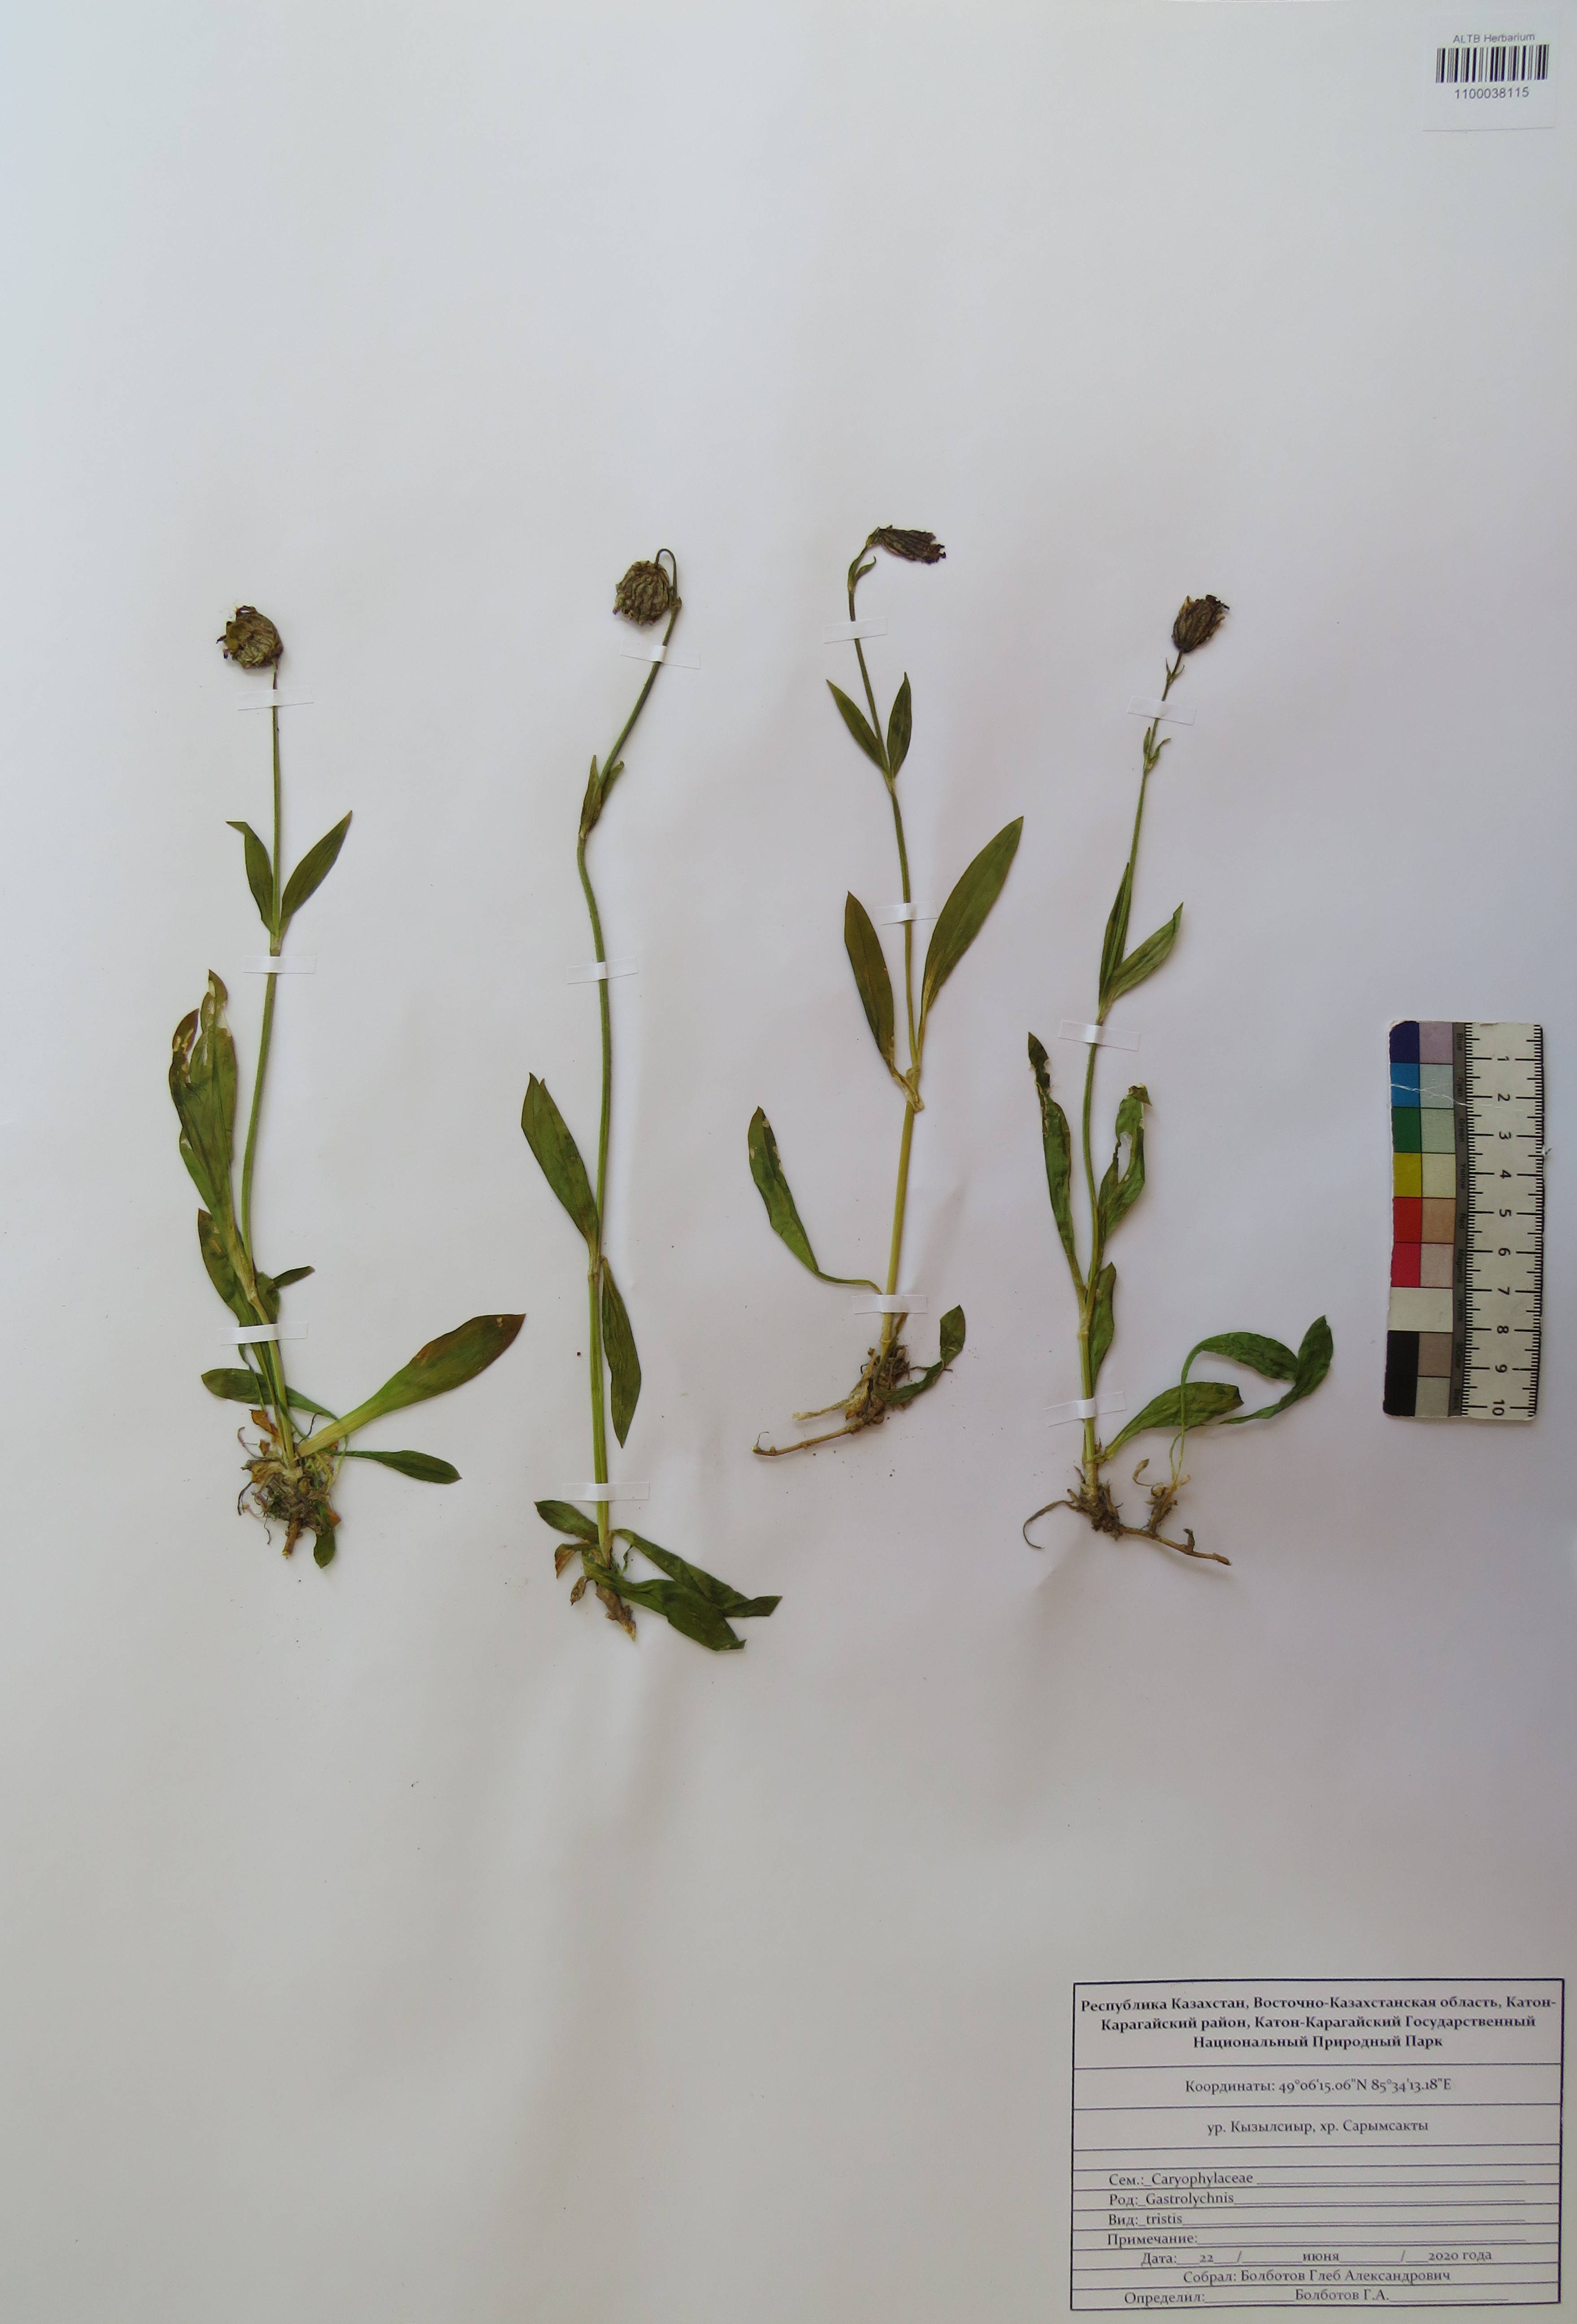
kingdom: Plantae
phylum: Tracheophyta
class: Magnoliopsida
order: Caryophyllales
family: Caryophyllaceae
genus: Silene
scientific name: Silene bungei
